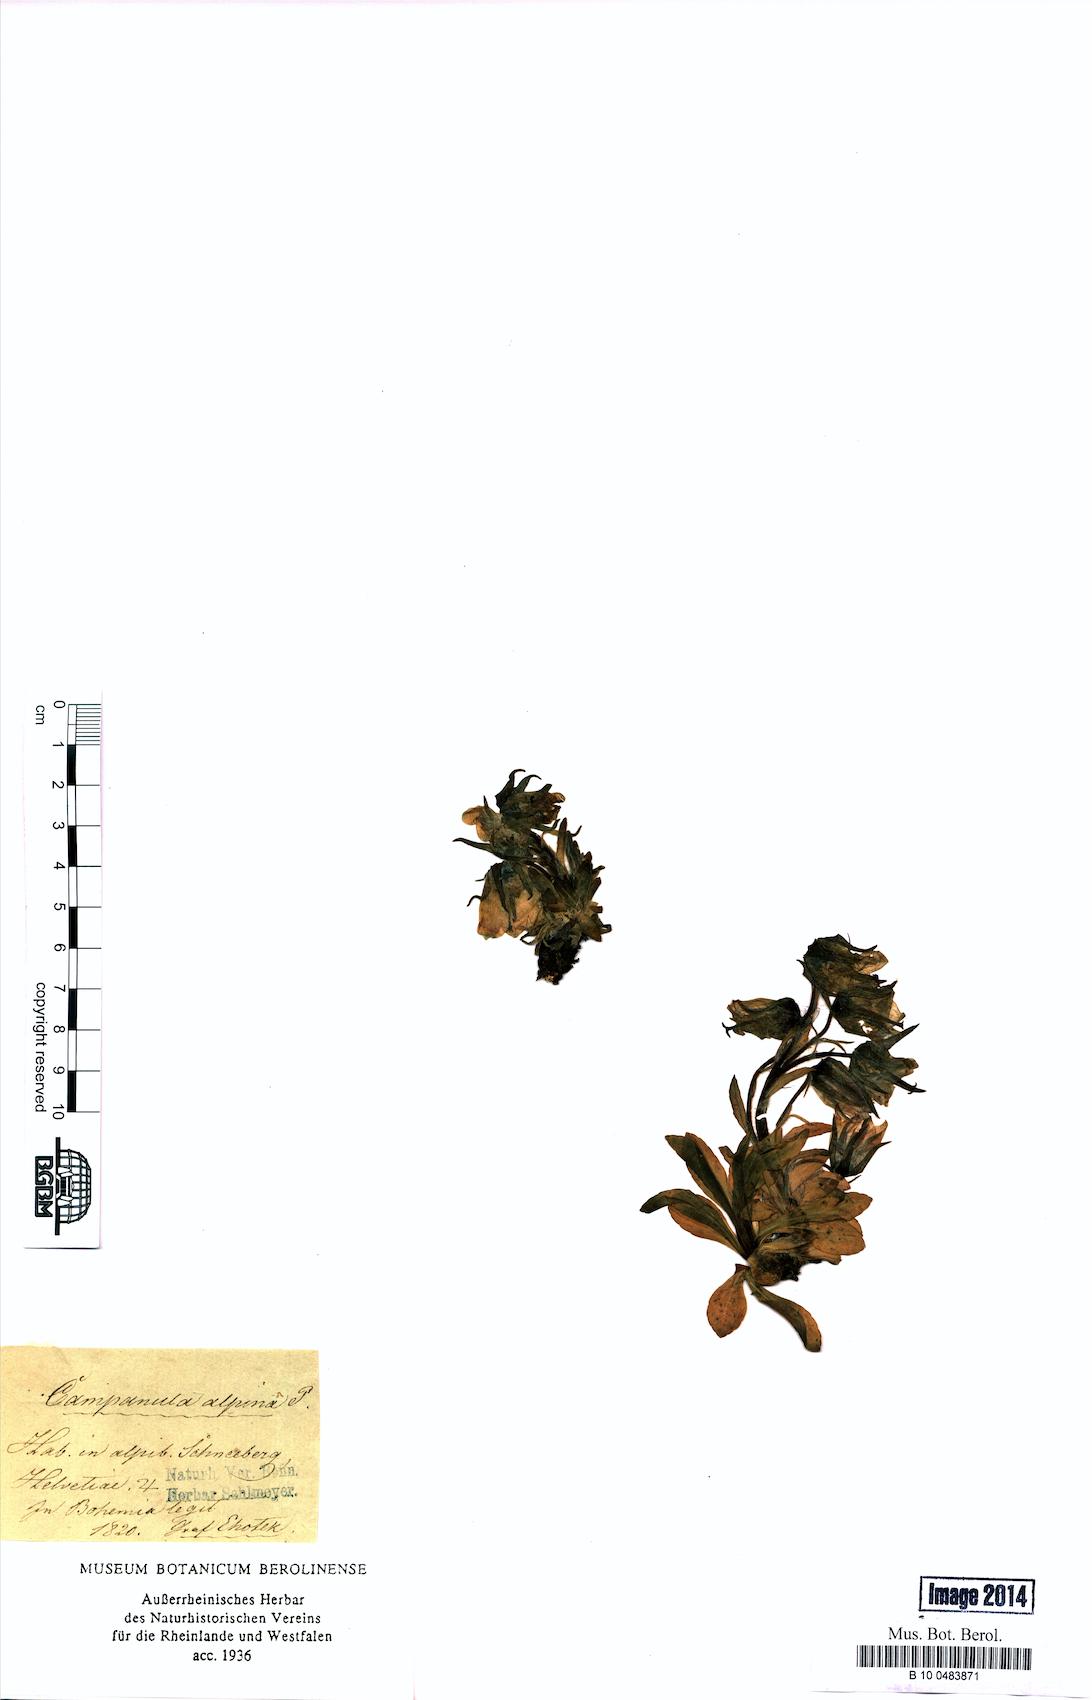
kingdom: Plantae
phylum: Tracheophyta
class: Magnoliopsida
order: Asterales
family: Campanulaceae
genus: Campanula
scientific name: Campanula alpina
